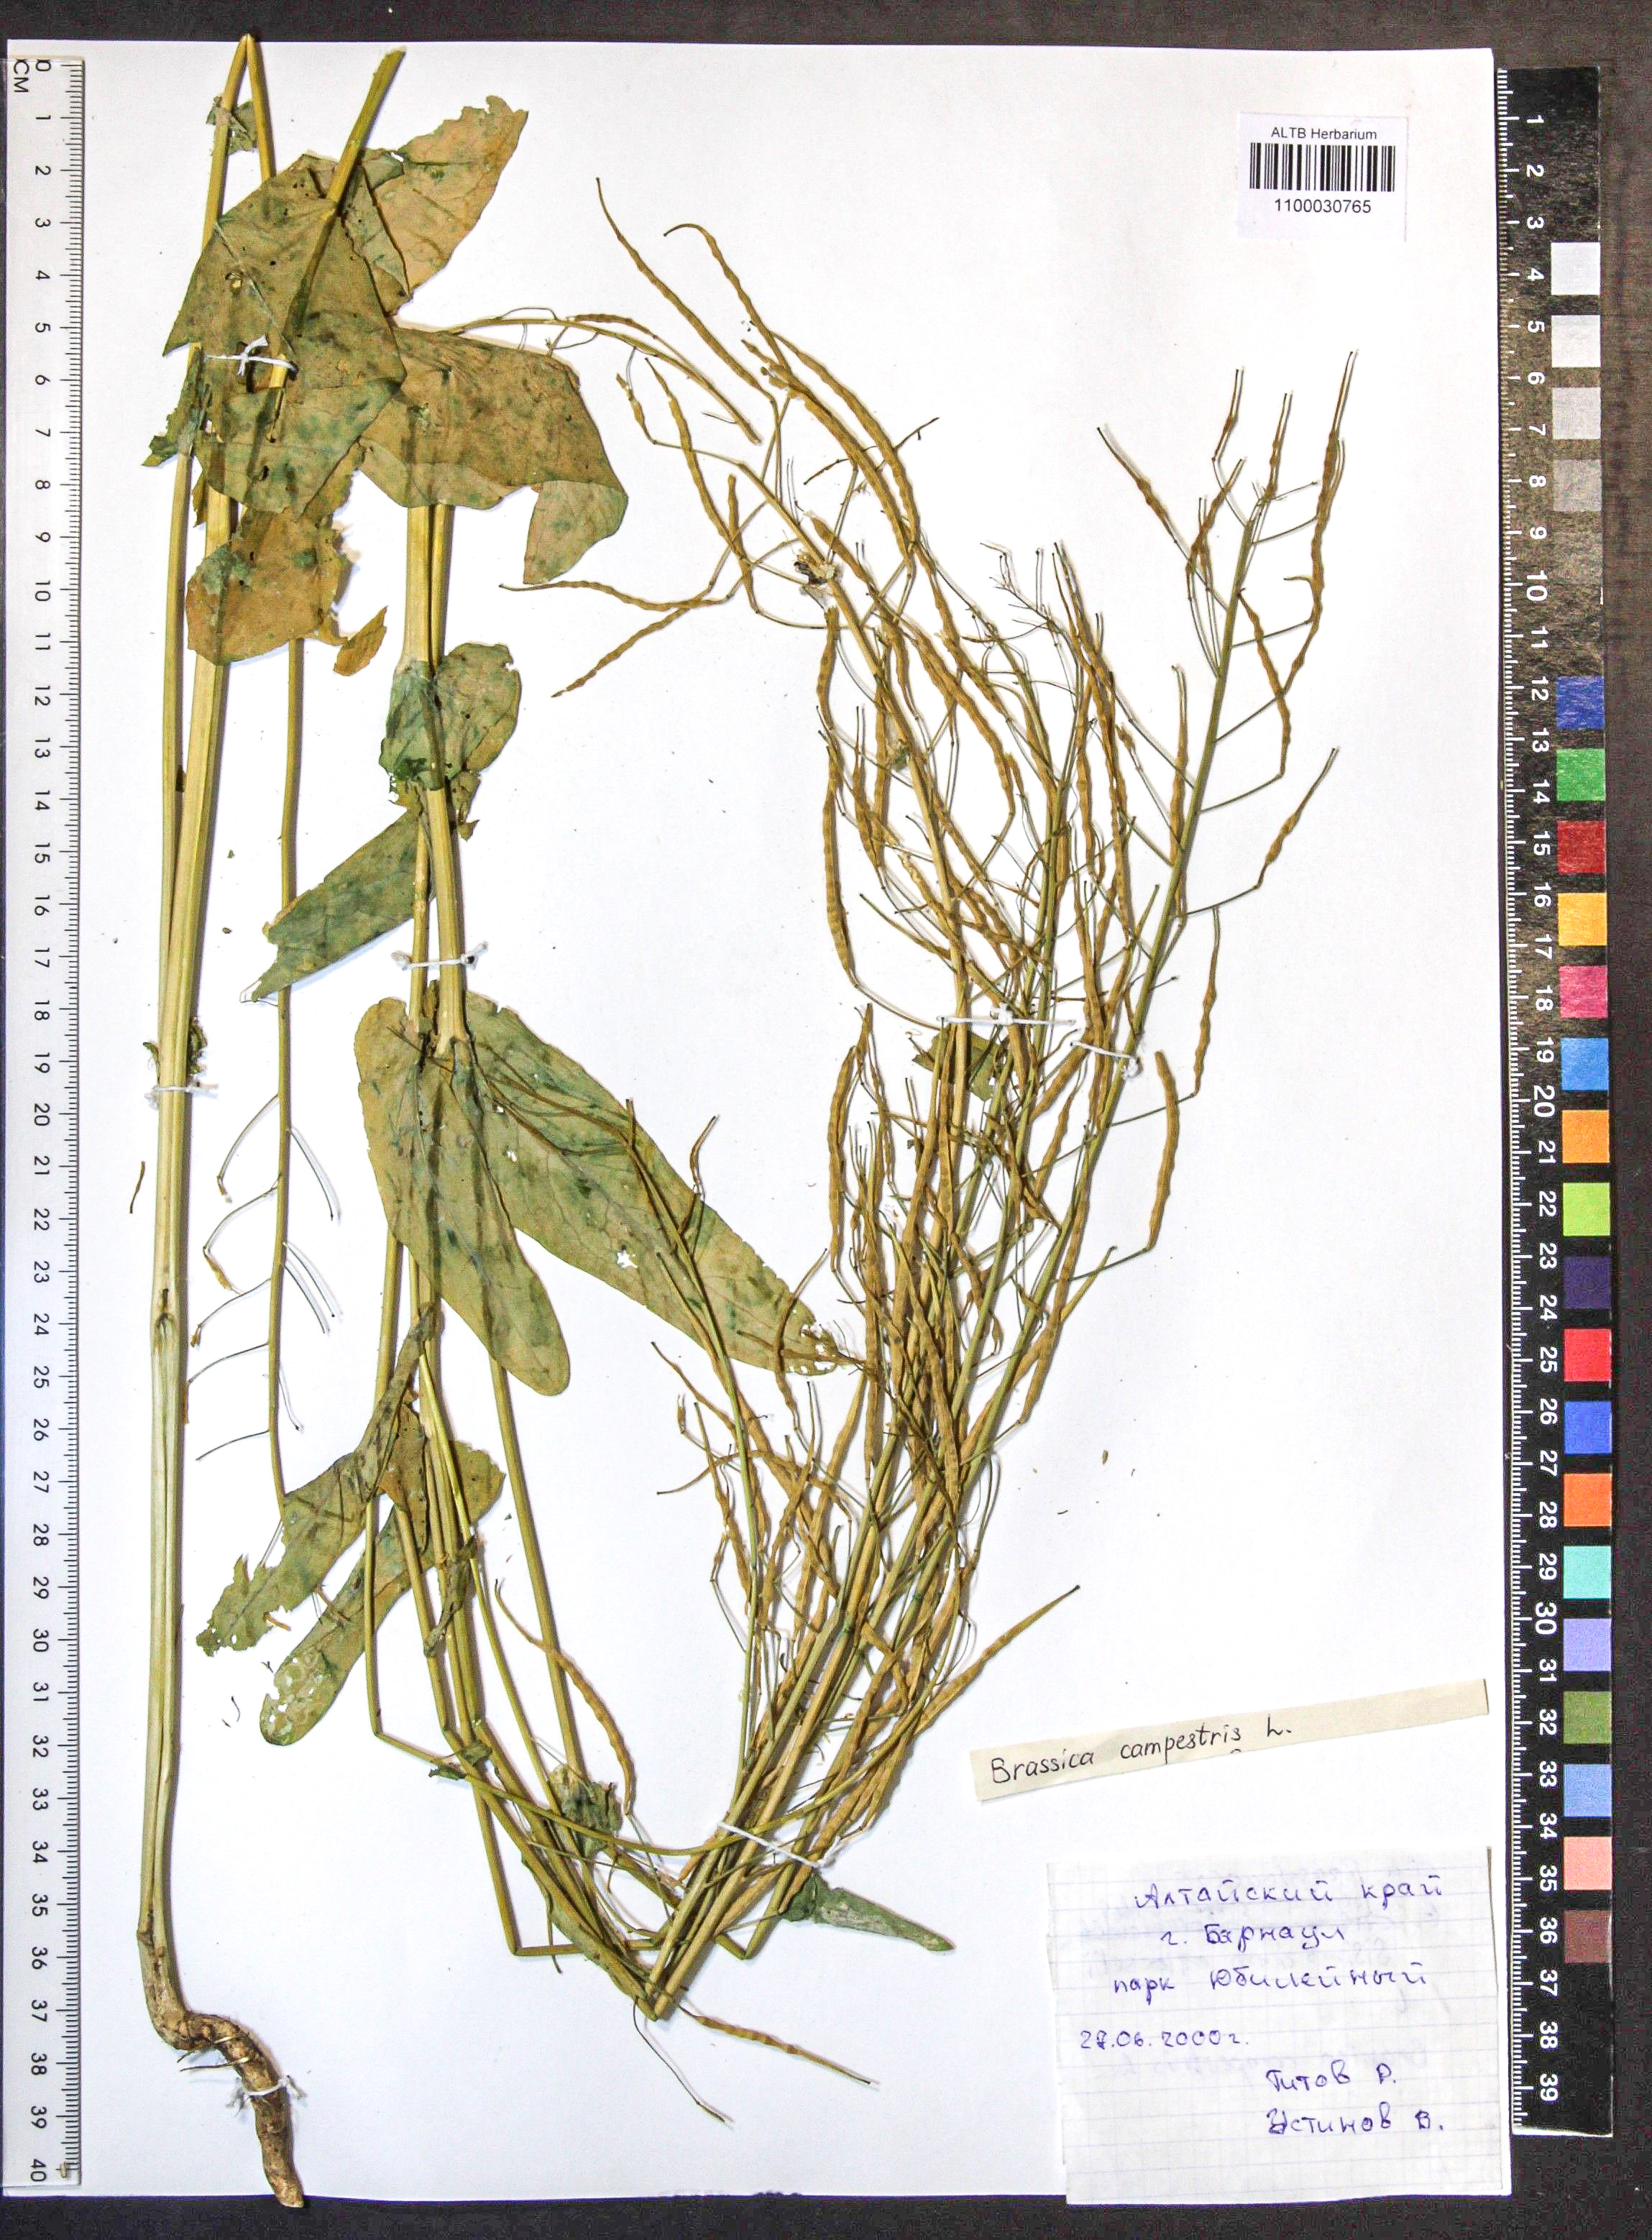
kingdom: Plantae
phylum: Tracheophyta
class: Magnoliopsida
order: Brassicales
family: Brassicaceae
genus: Brassica
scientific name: Brassica rapa
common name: Field mustard
